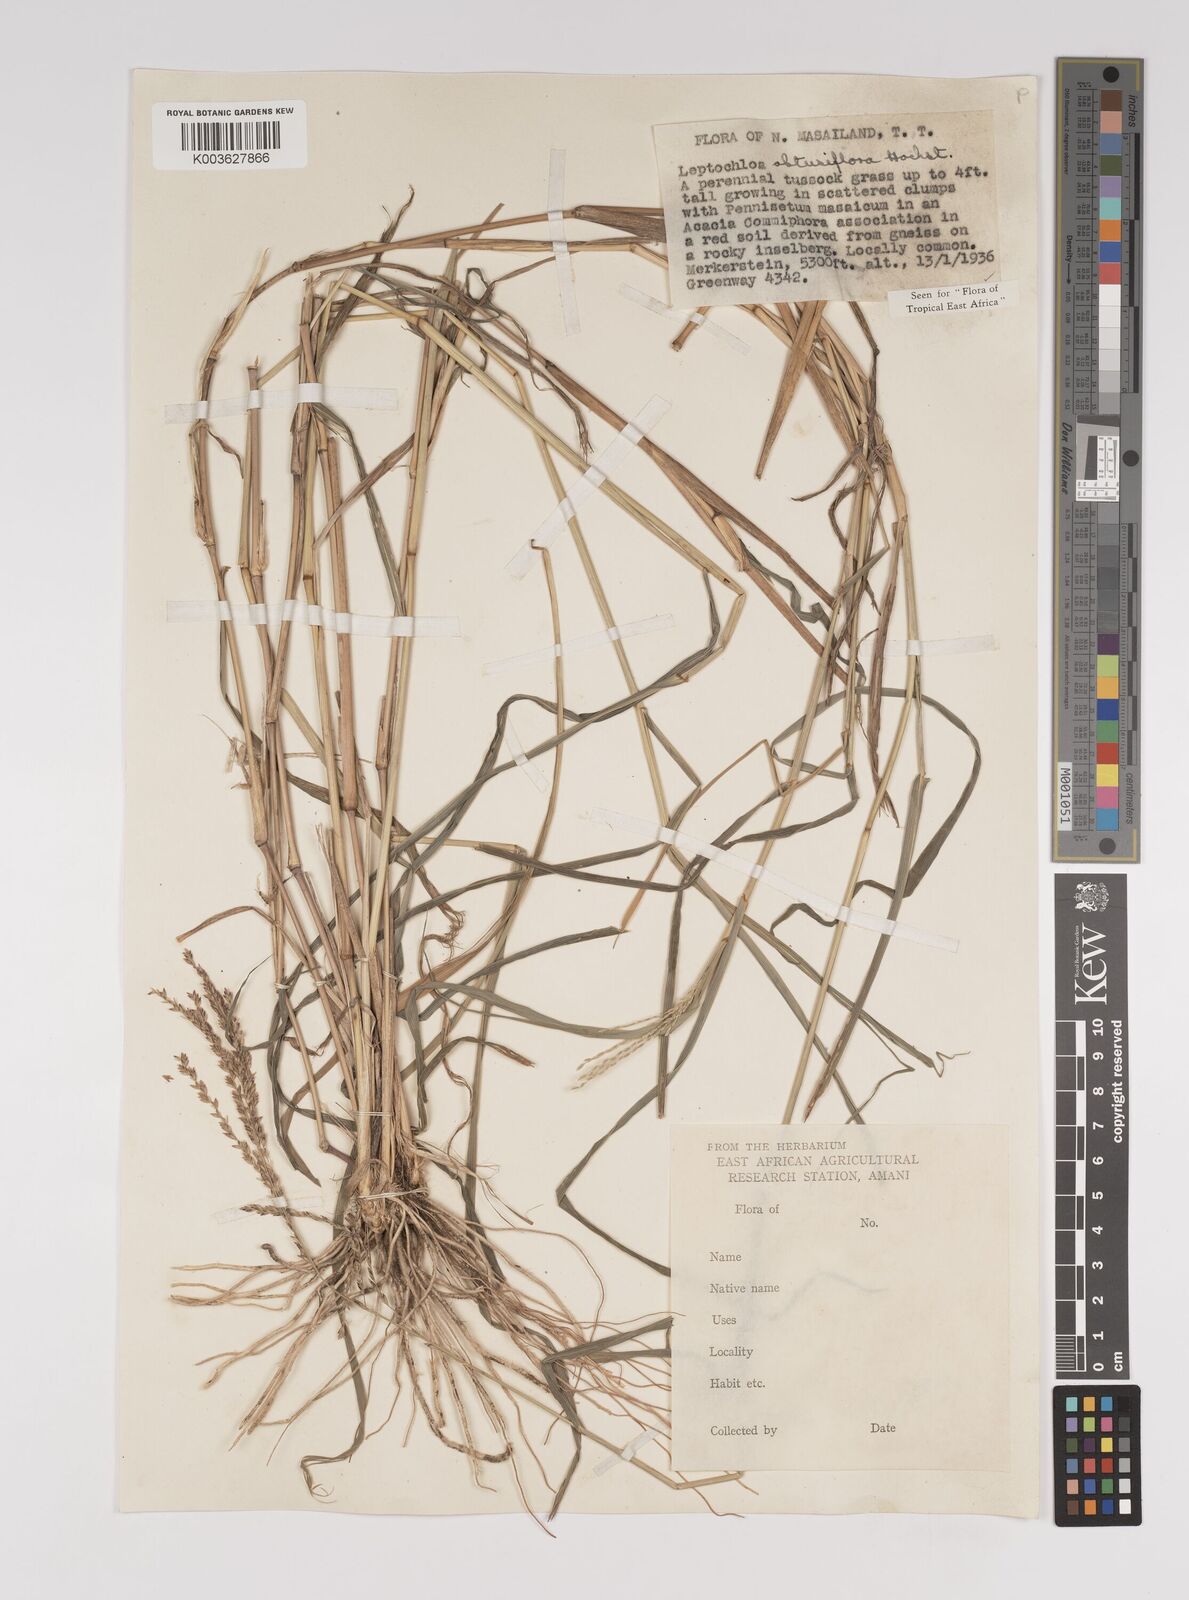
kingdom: Plantae
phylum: Tracheophyta
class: Liliopsida
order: Poales
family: Poaceae
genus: Disakisperma
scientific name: Disakisperma obtusiflorum
